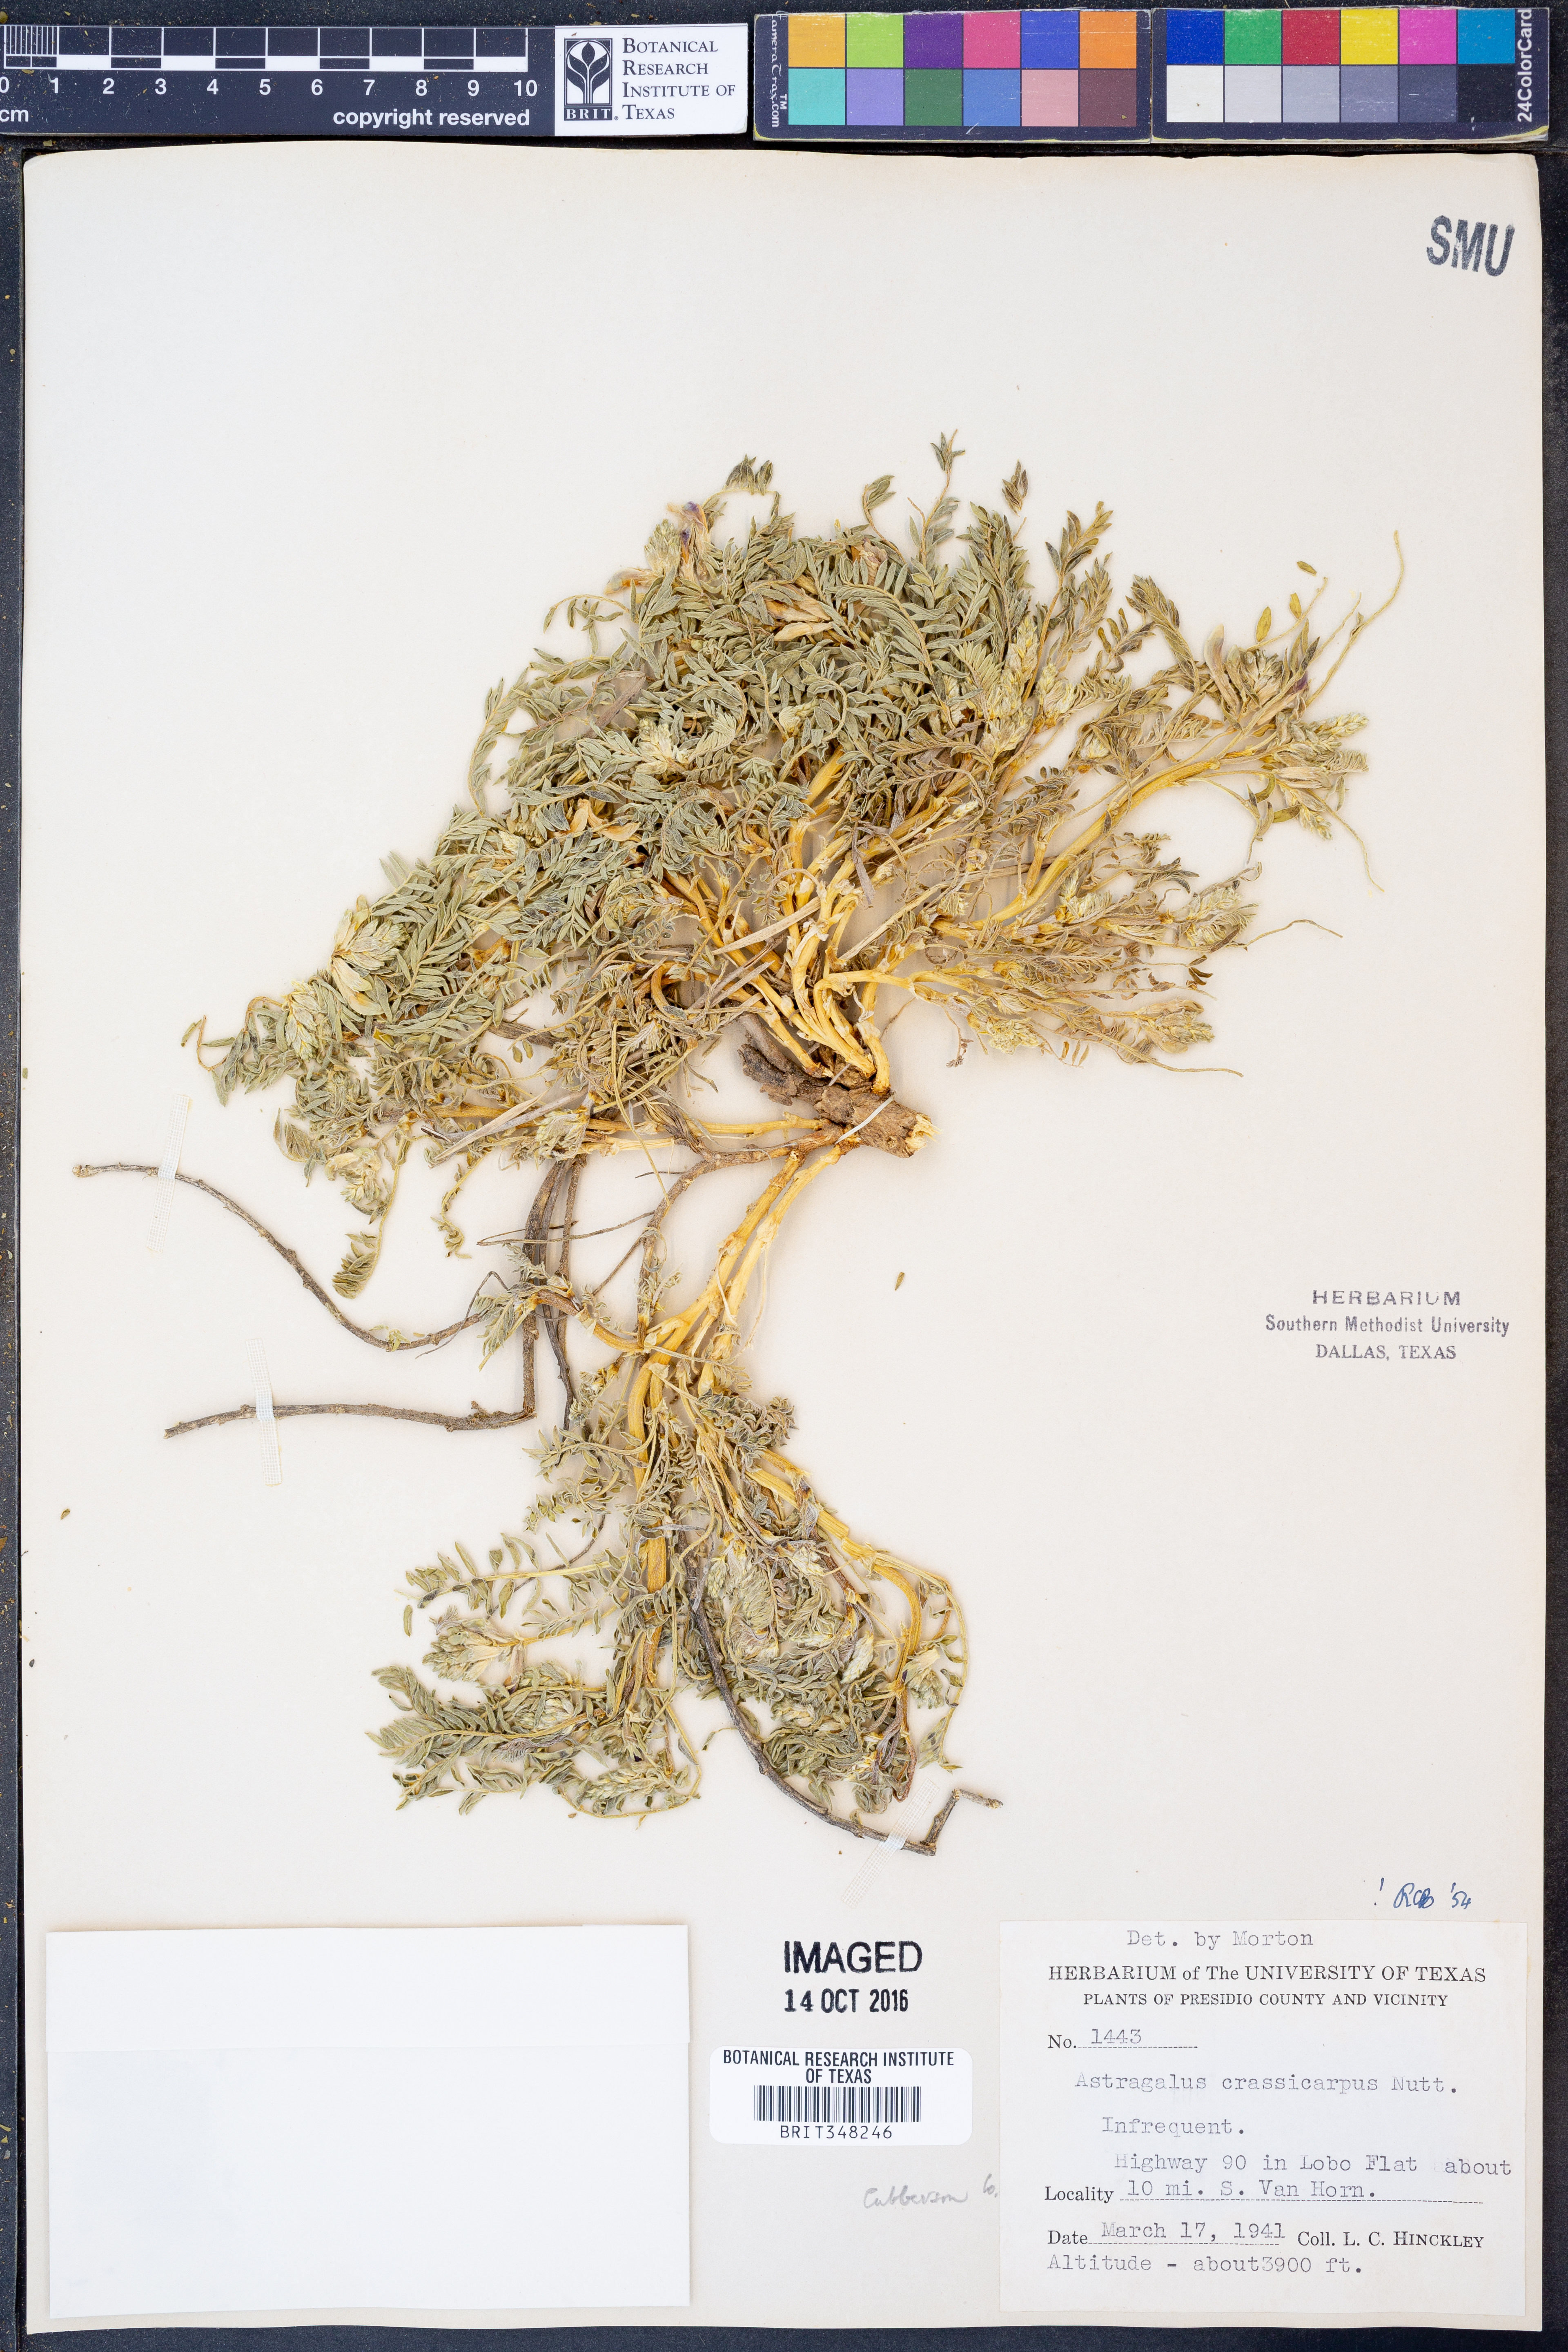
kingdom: Plantae
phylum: Tracheophyta
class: Magnoliopsida
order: Fabales
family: Fabaceae
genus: Astragalus
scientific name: Astragalus crassicarpus
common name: Ground-plum milk-vetch
